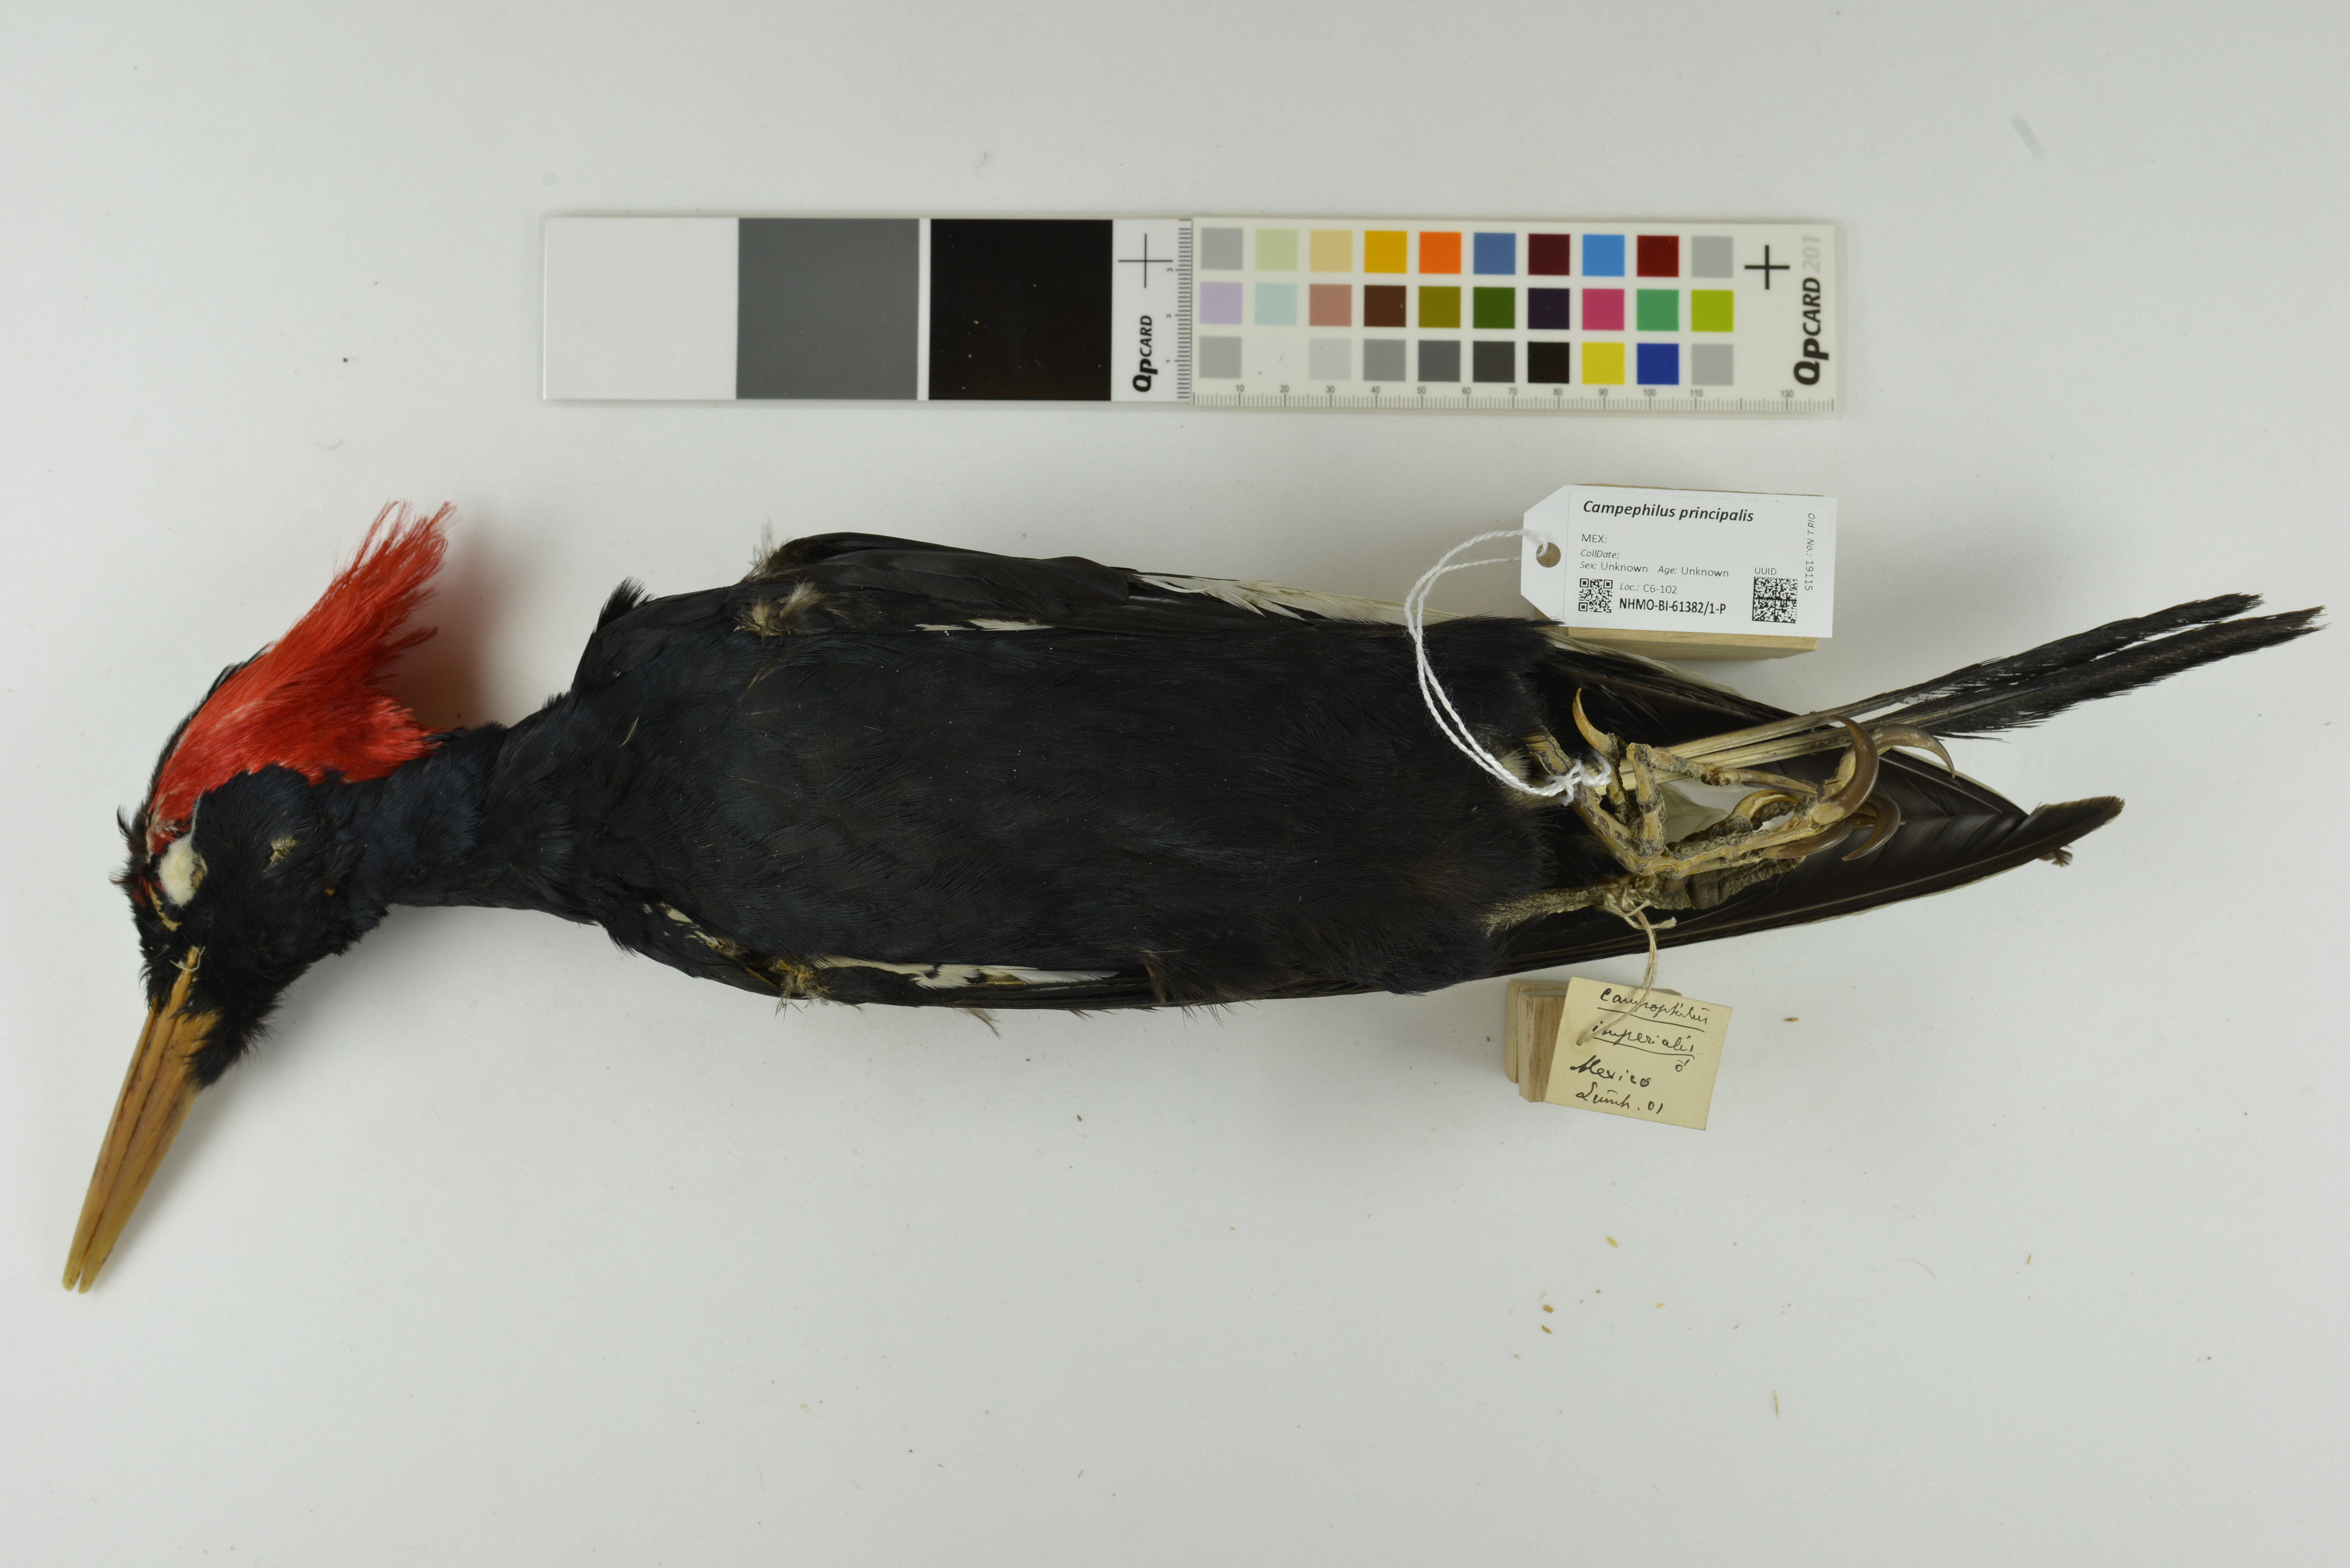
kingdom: Animalia
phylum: Chordata
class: Aves
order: Piciformes
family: Picidae
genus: Campephilus
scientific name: Campephilus imperialis
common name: Imperial woodpecker
